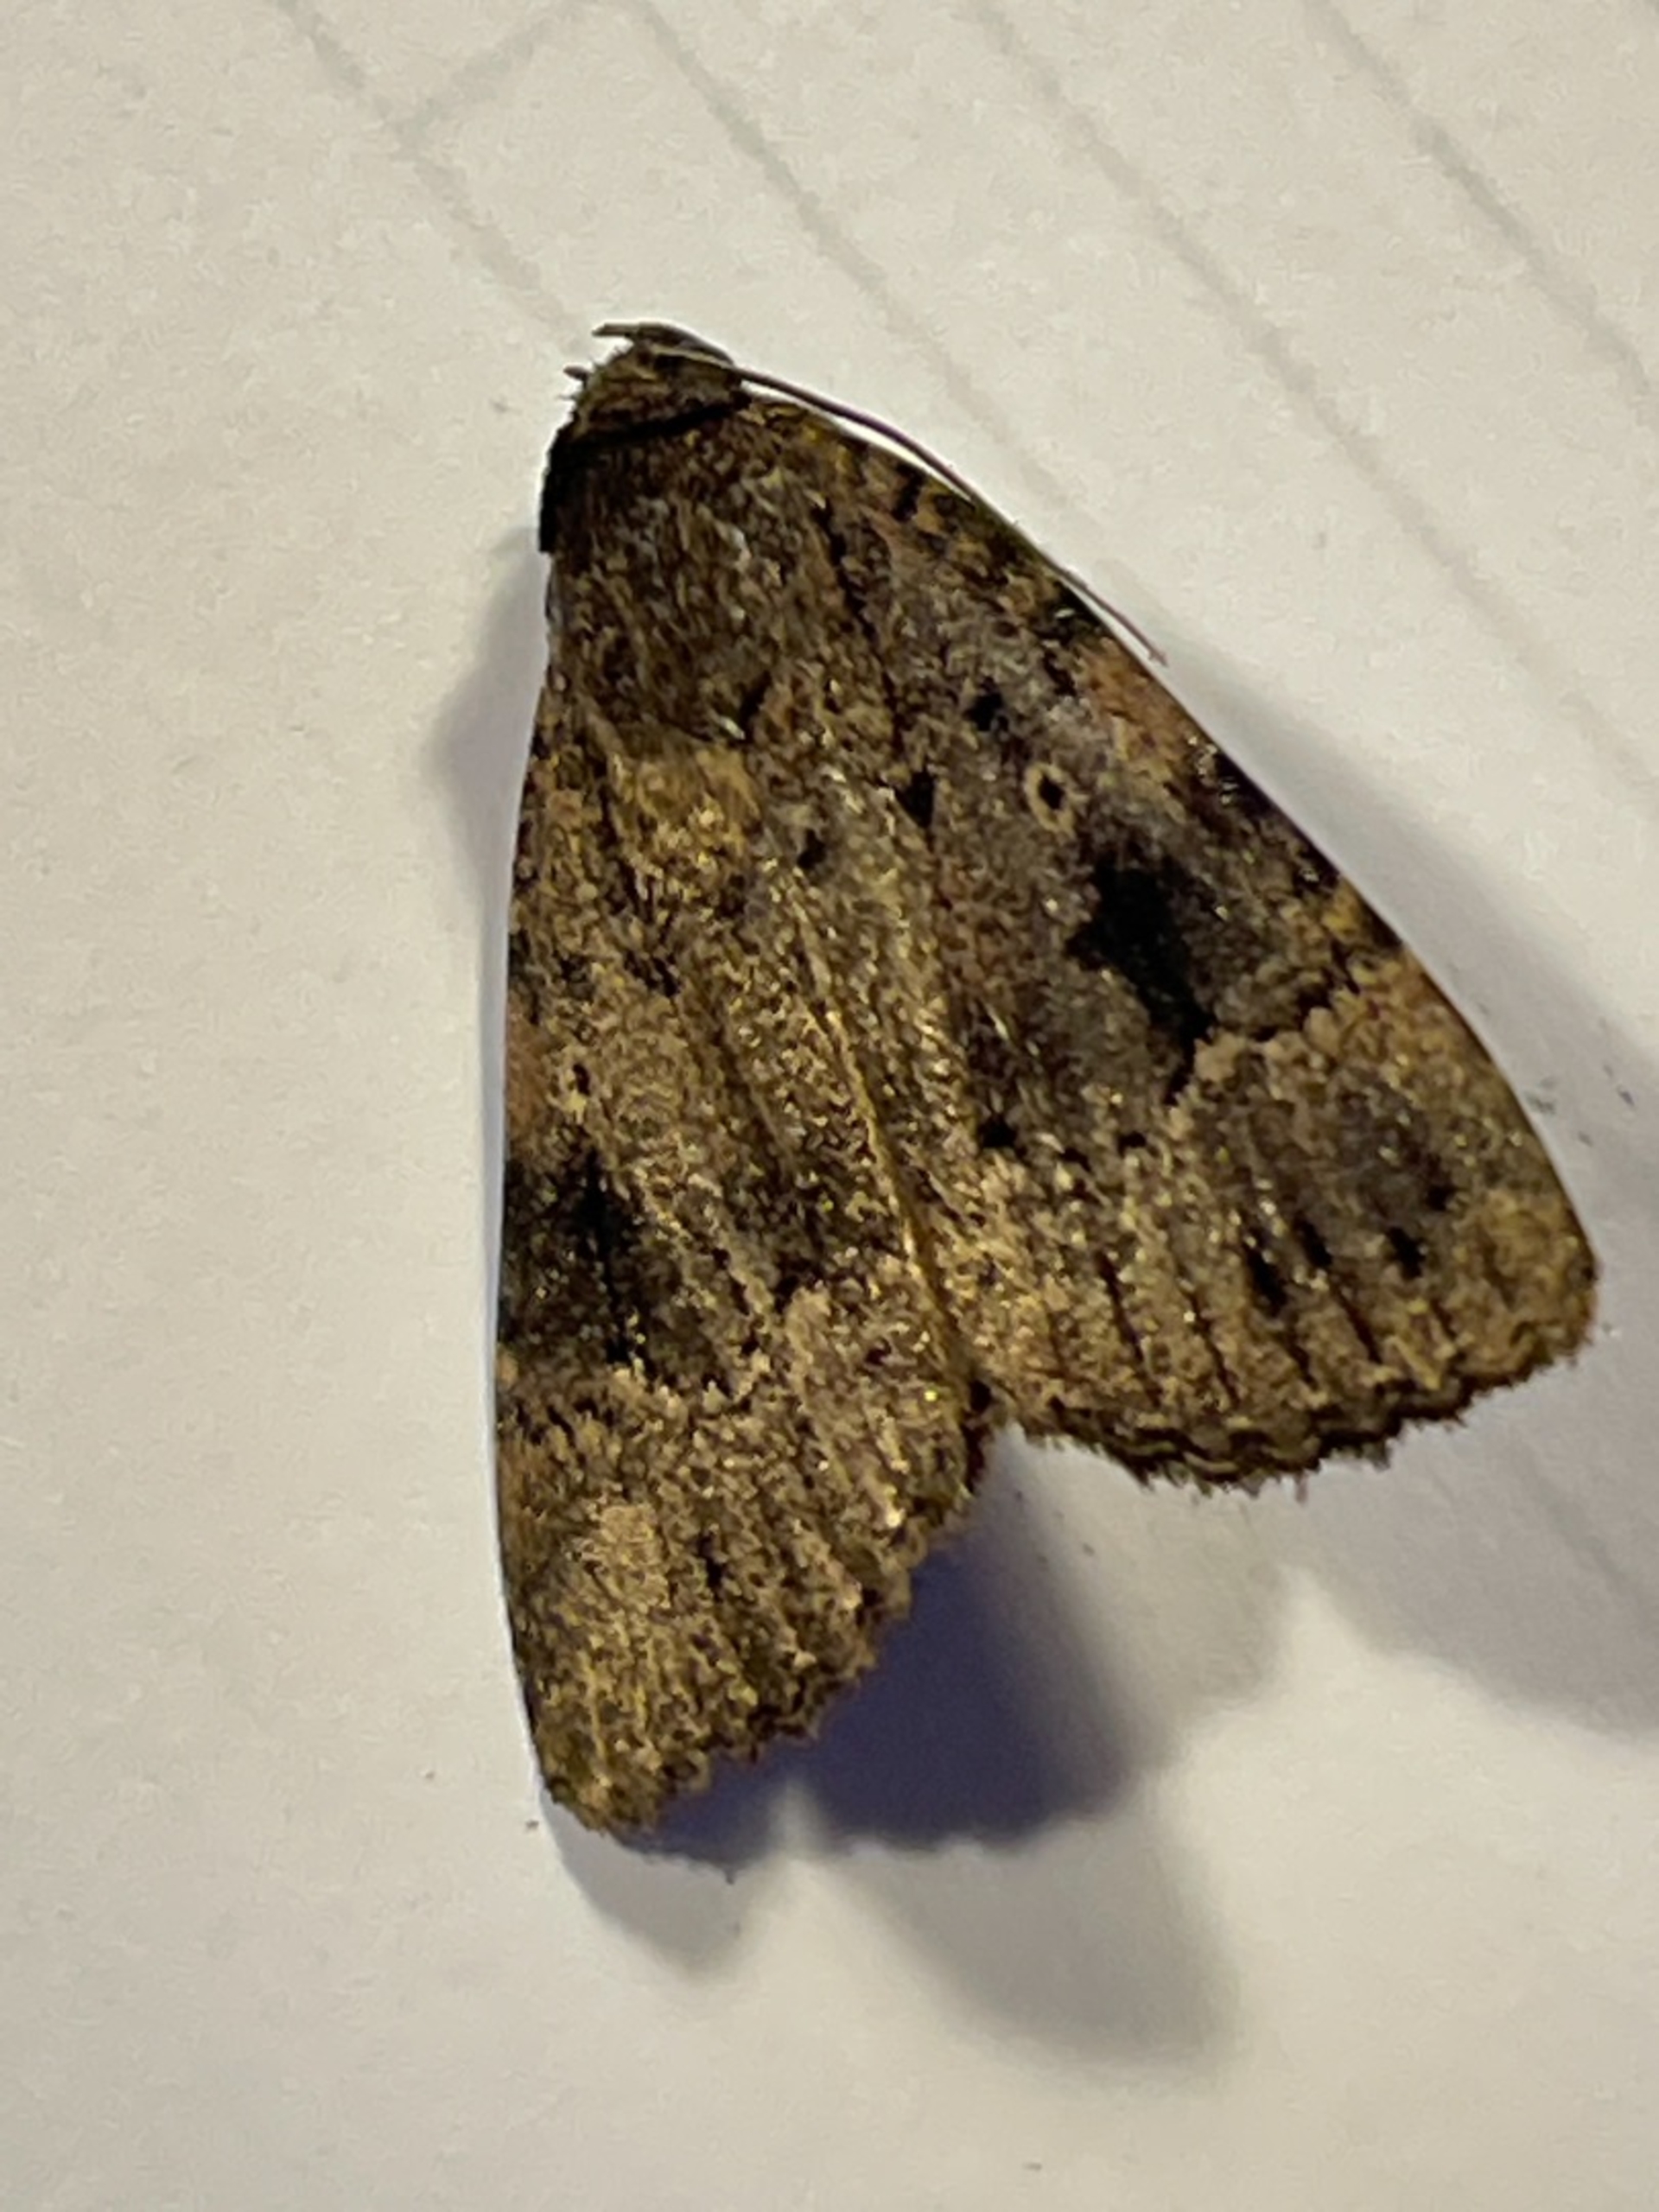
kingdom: Animalia
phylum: Arthropoda
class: Insecta
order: Lepidoptera
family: Noctuidae
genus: Amphipyra
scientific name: Amphipyra pyramidea
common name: Pyramideugle
